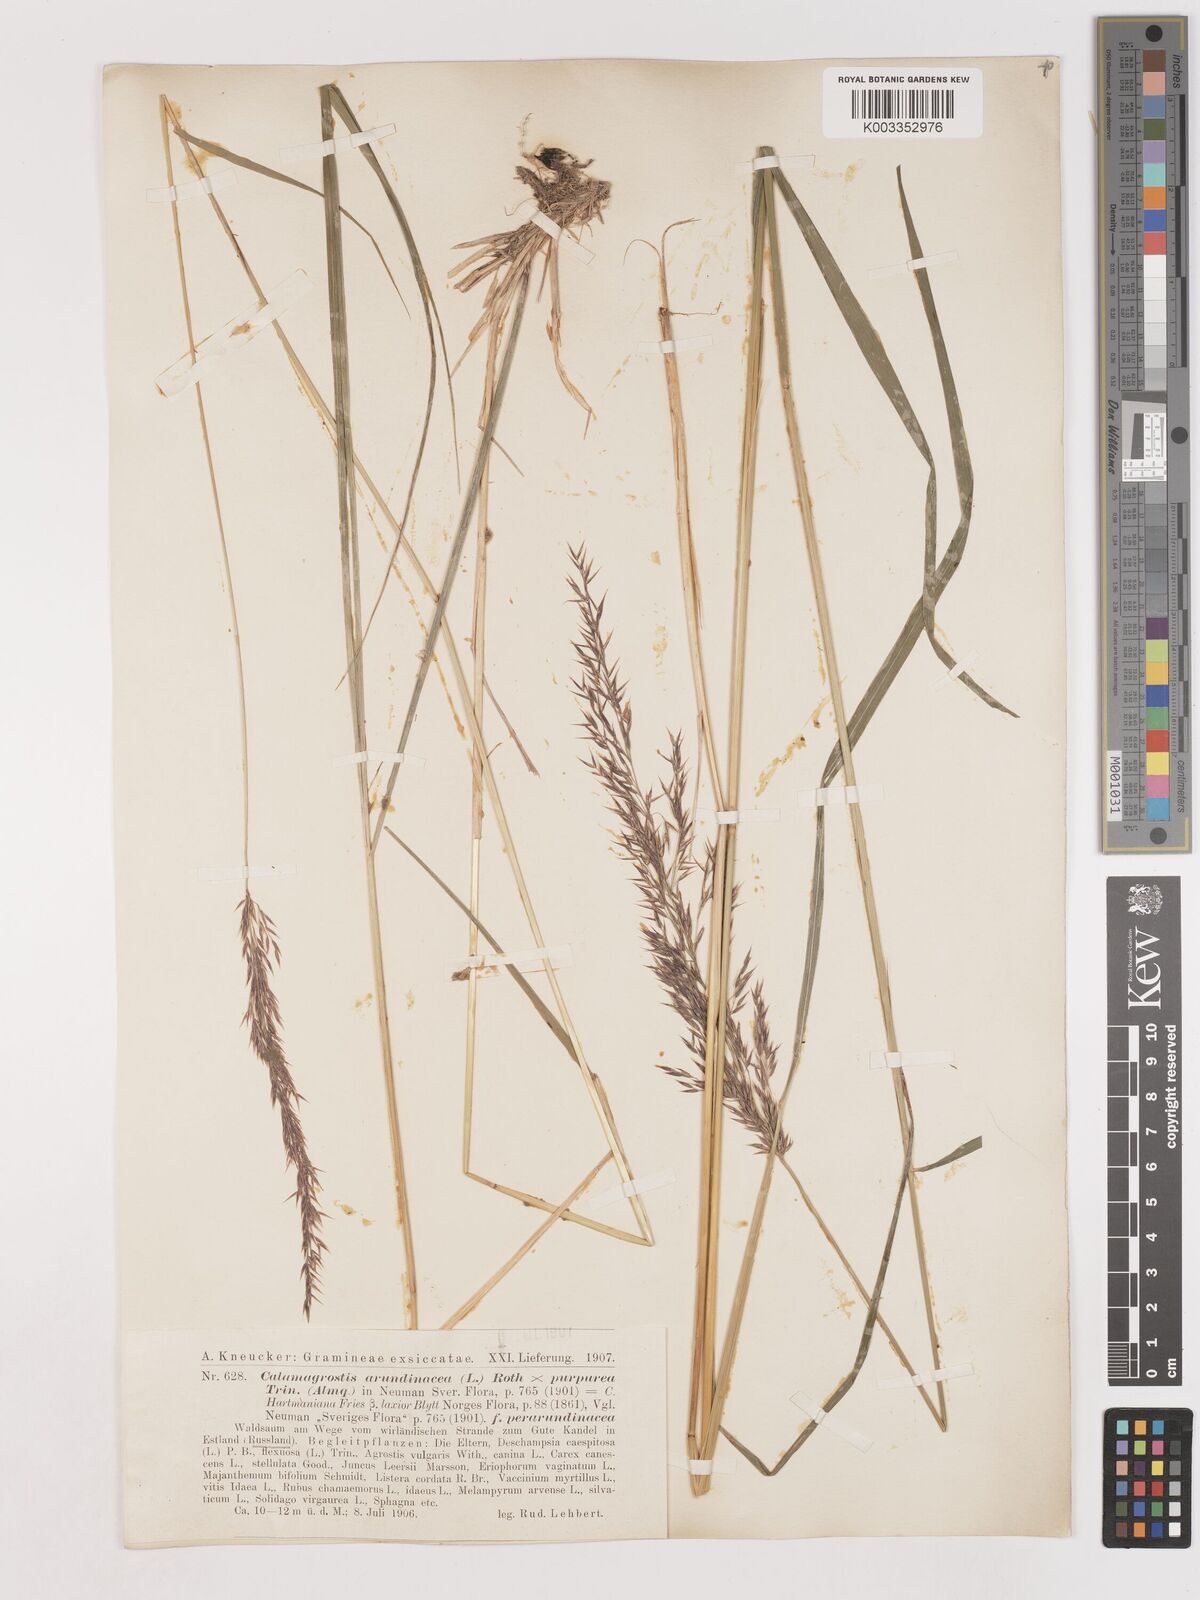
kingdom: Plantae
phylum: Tracheophyta
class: Liliopsida
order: Poales
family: Poaceae
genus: Calamagrostis
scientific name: Calamagrostis canescens
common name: Purple small-reed
